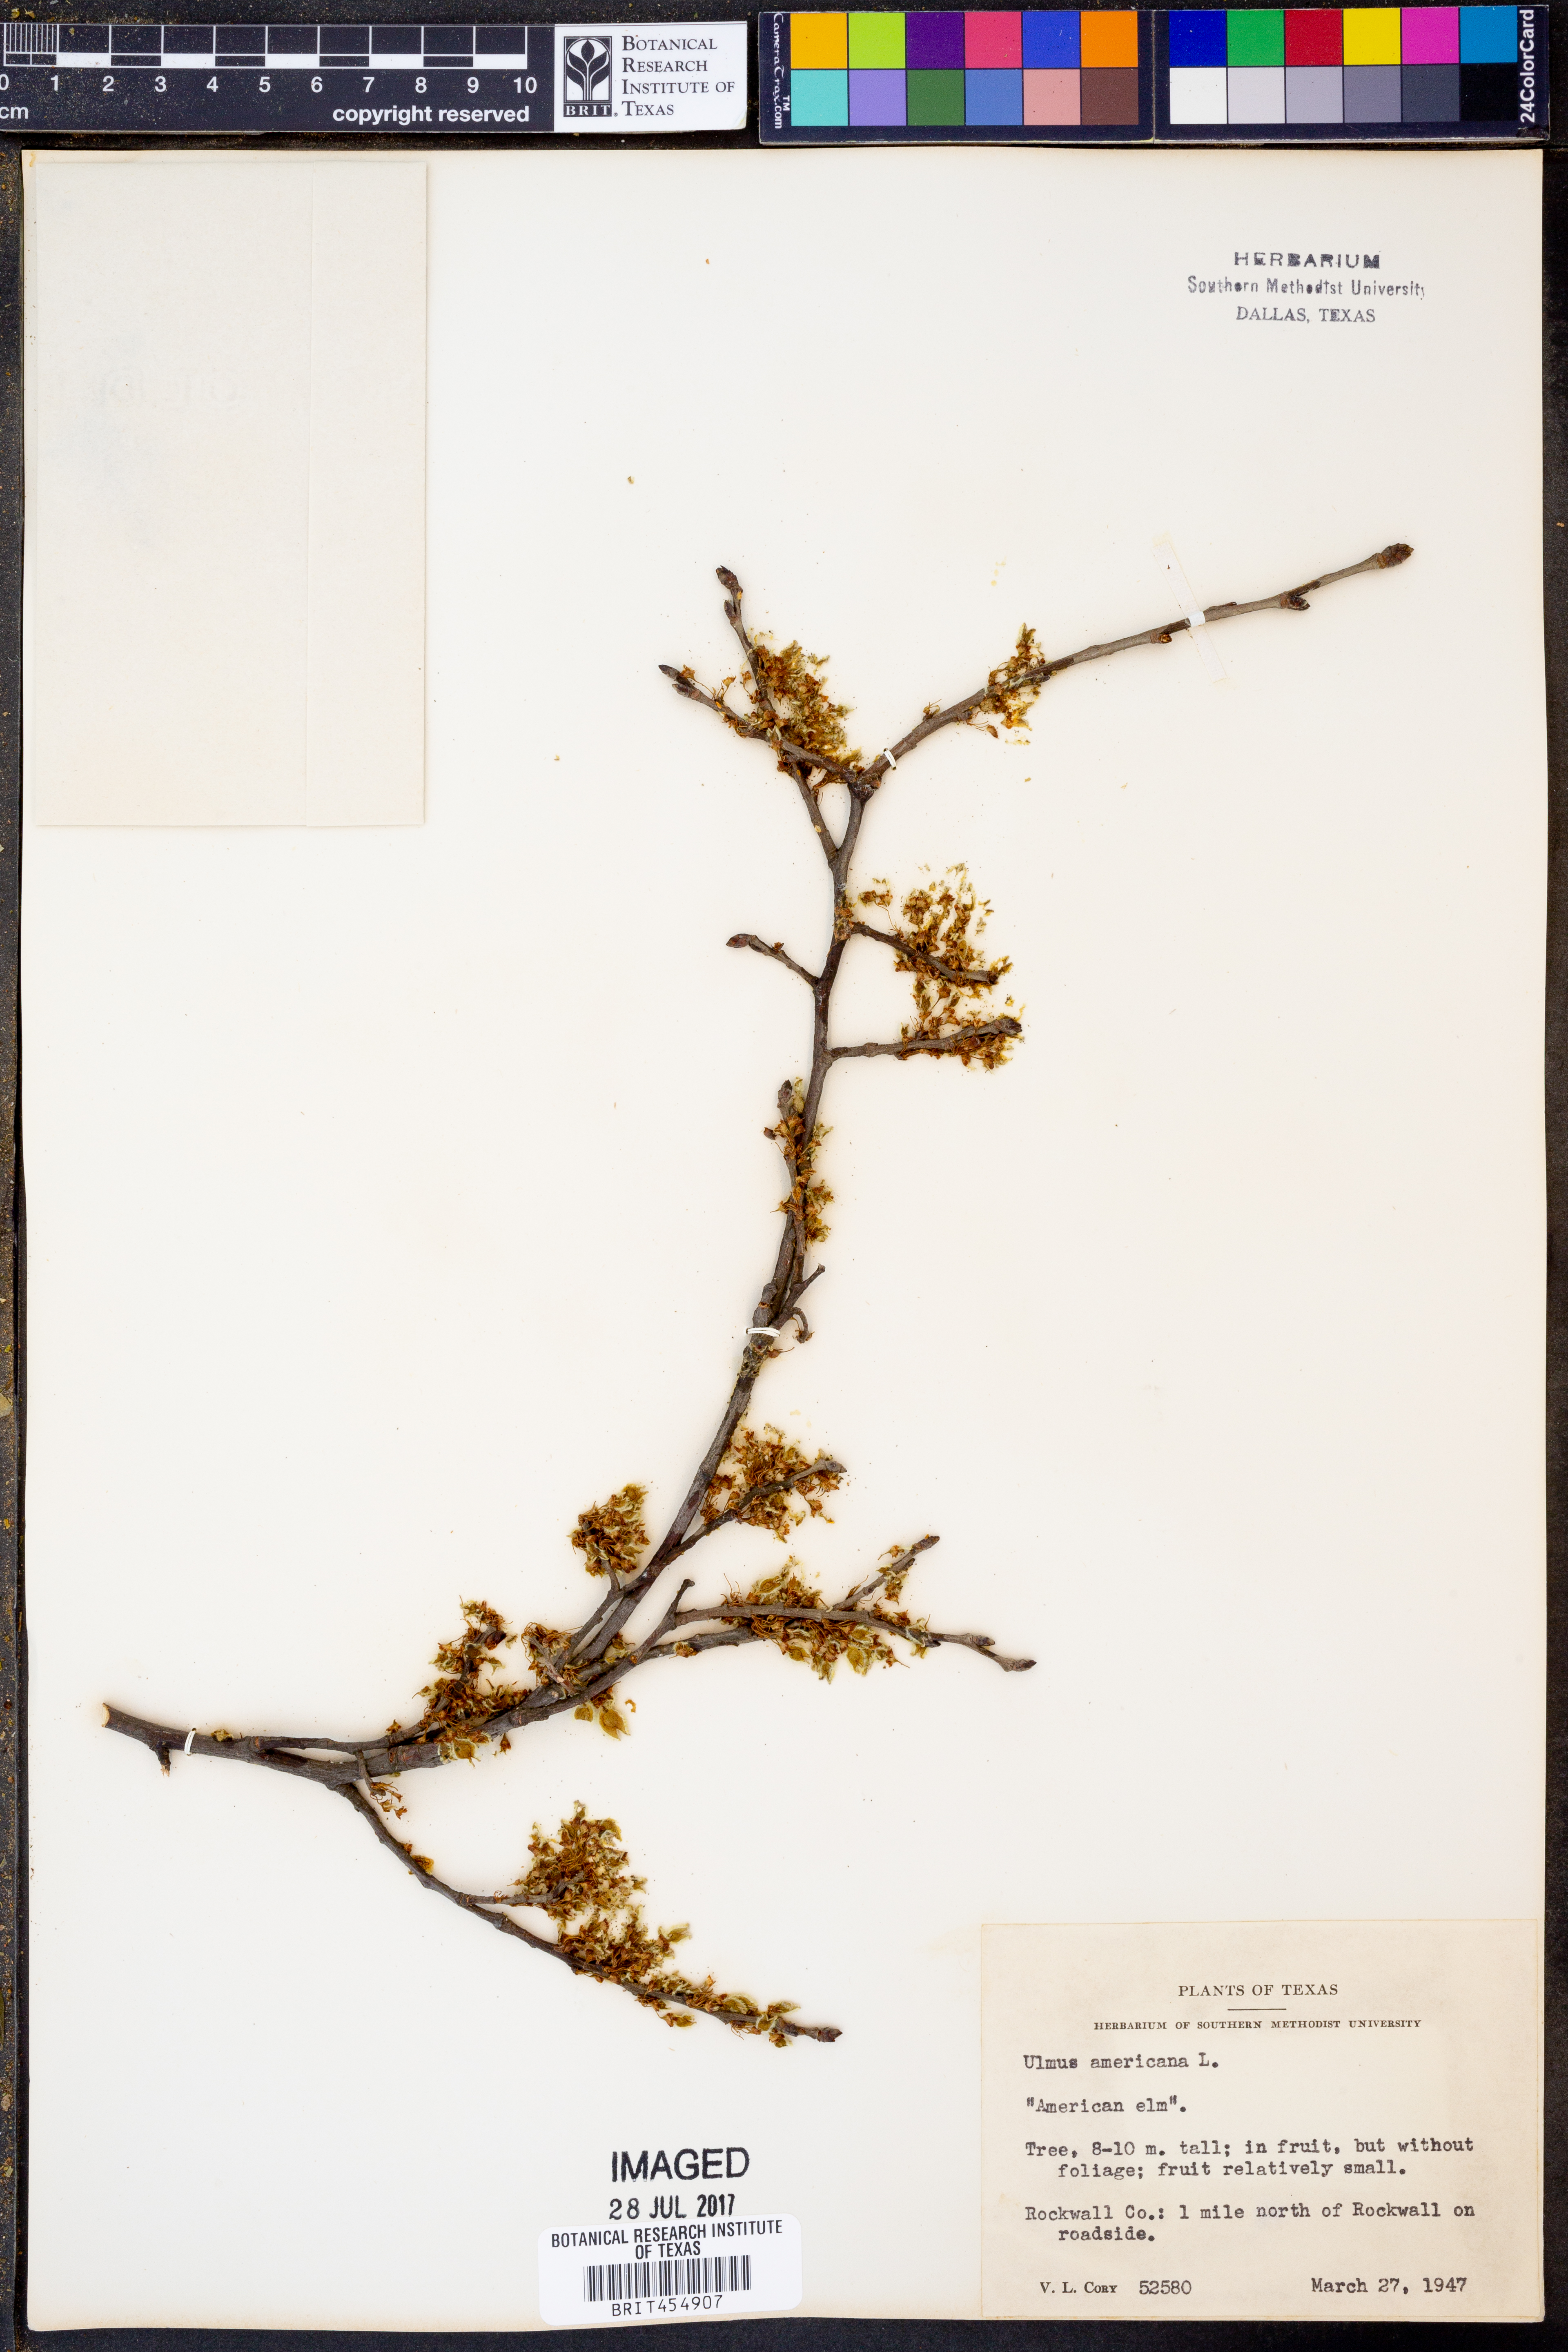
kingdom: Plantae
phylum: Tracheophyta
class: Magnoliopsida
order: Rosales
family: Ulmaceae
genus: Ulmus
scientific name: Ulmus americana
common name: American elm
